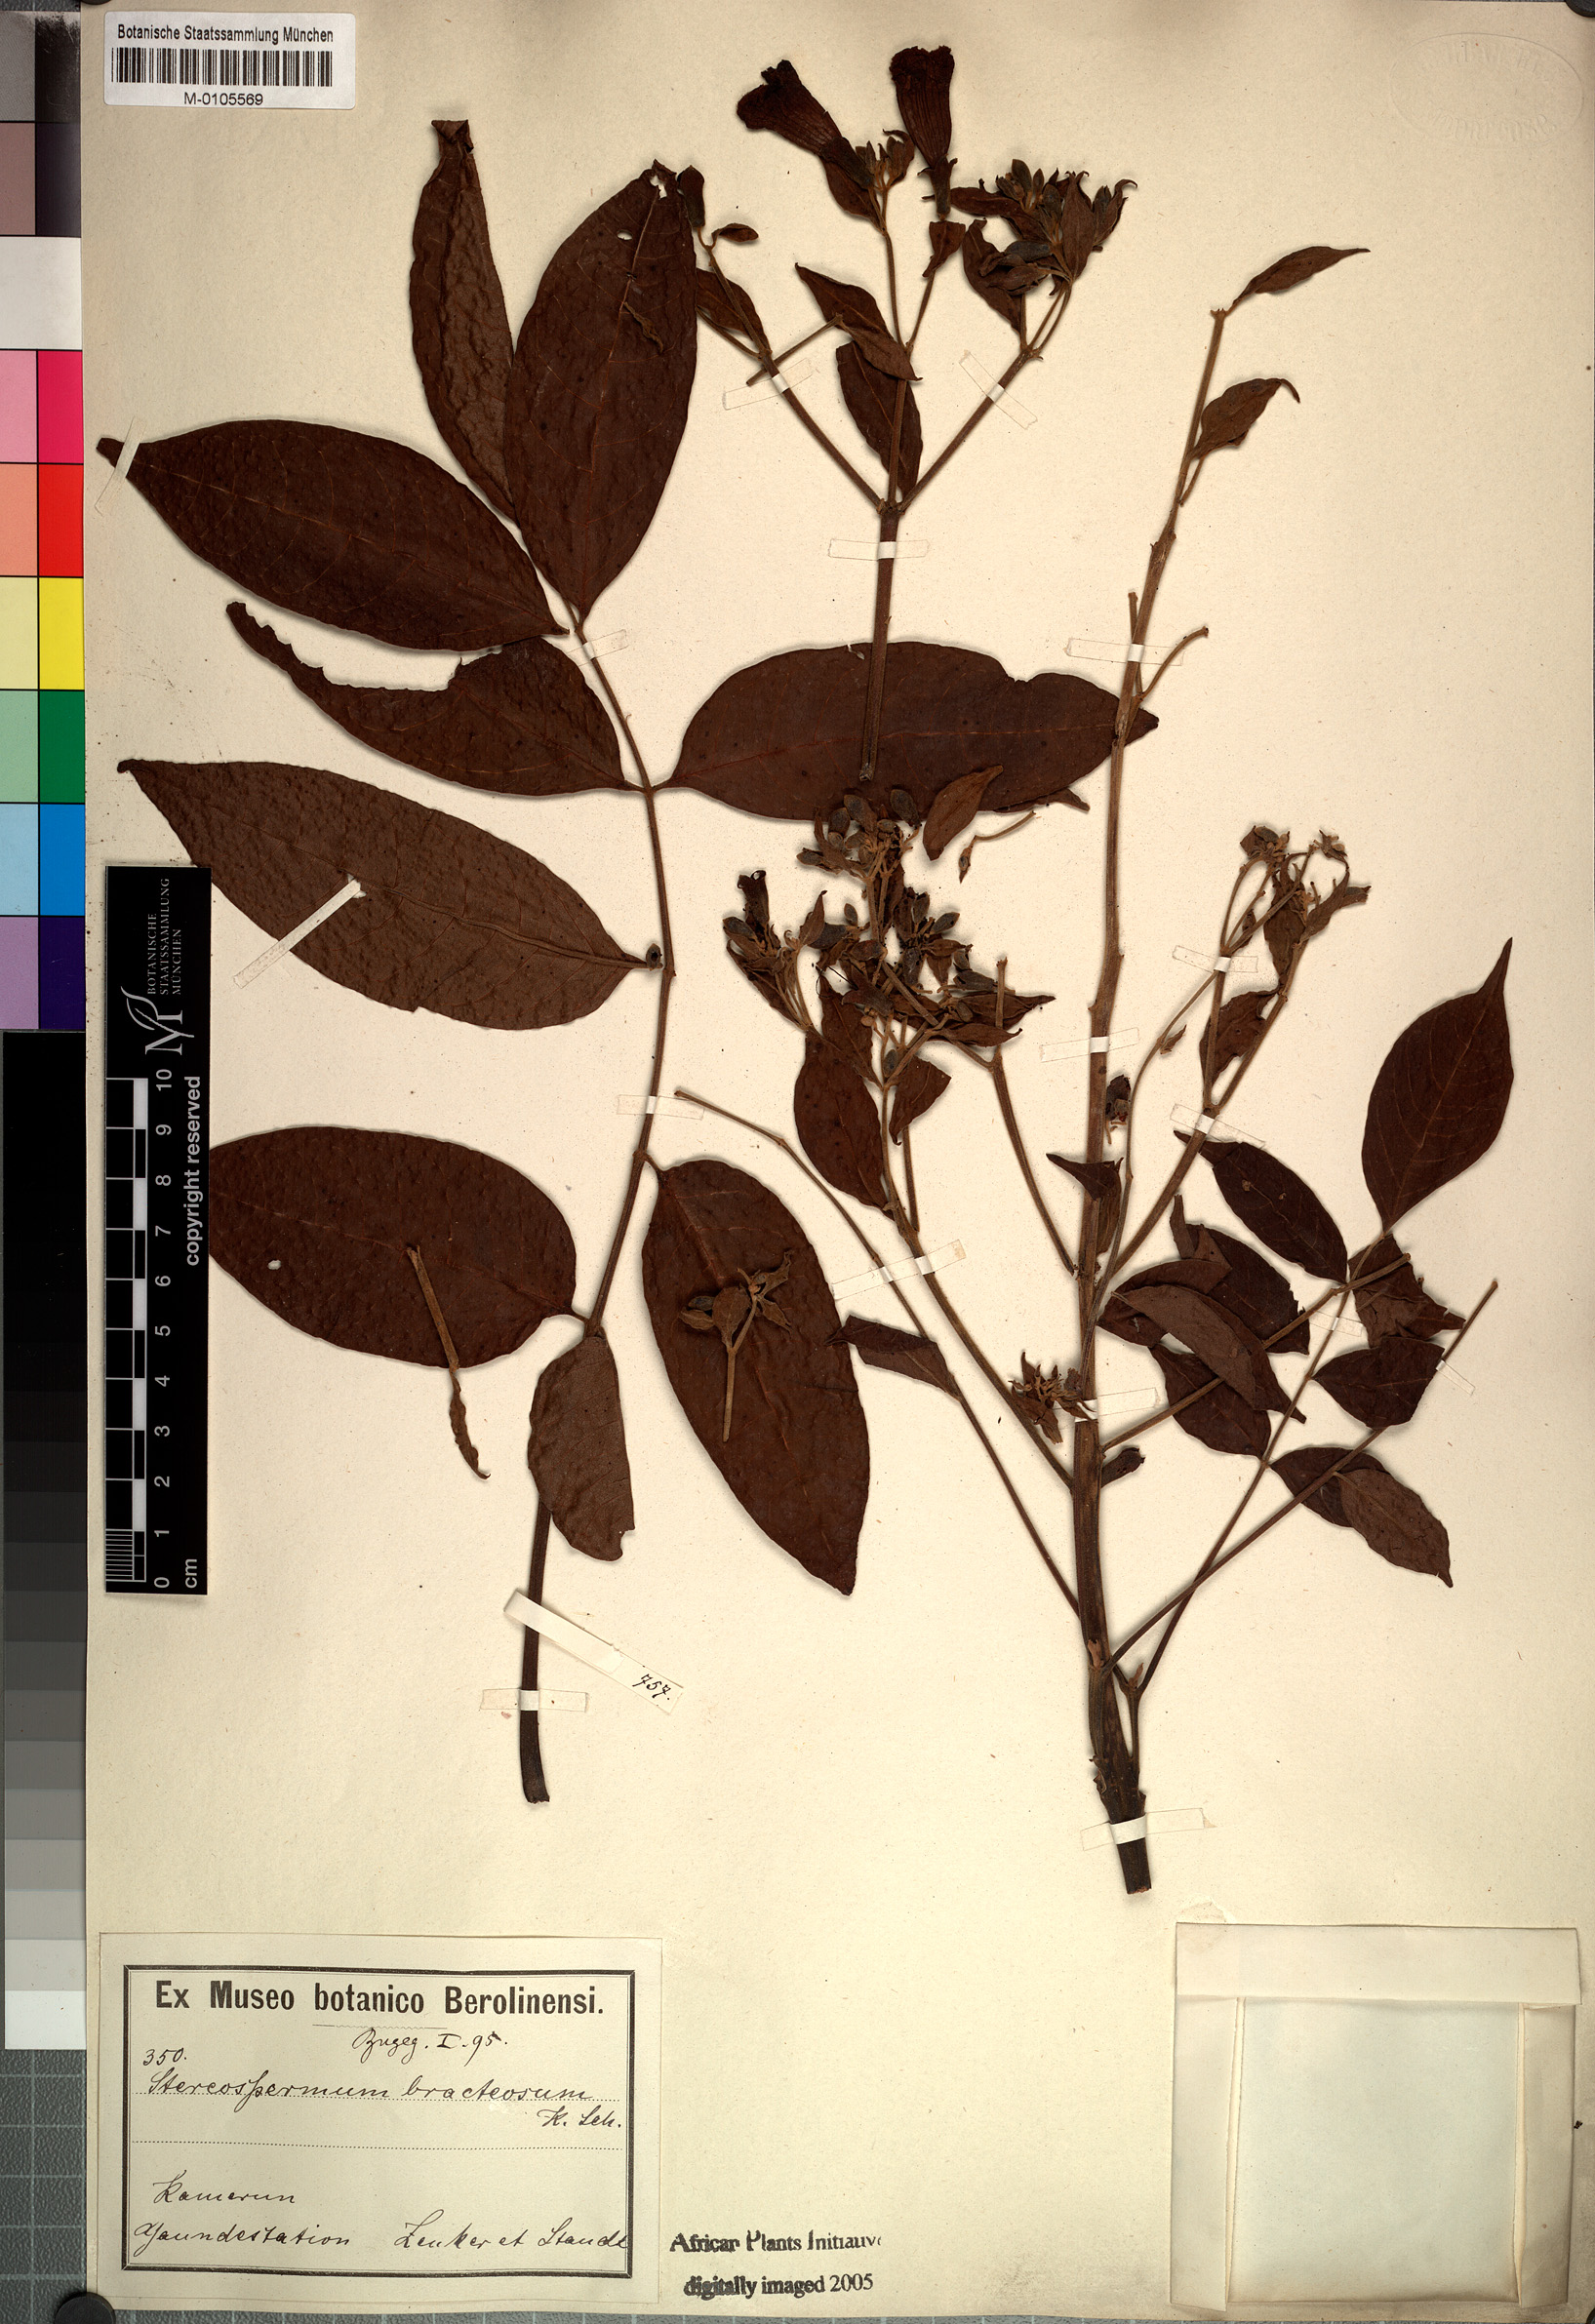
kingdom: Plantae
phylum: Tracheophyta
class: Magnoliopsida
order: Lamiales
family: Bignoniaceae
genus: Stereospermum
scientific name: Stereospermum zenkeri
